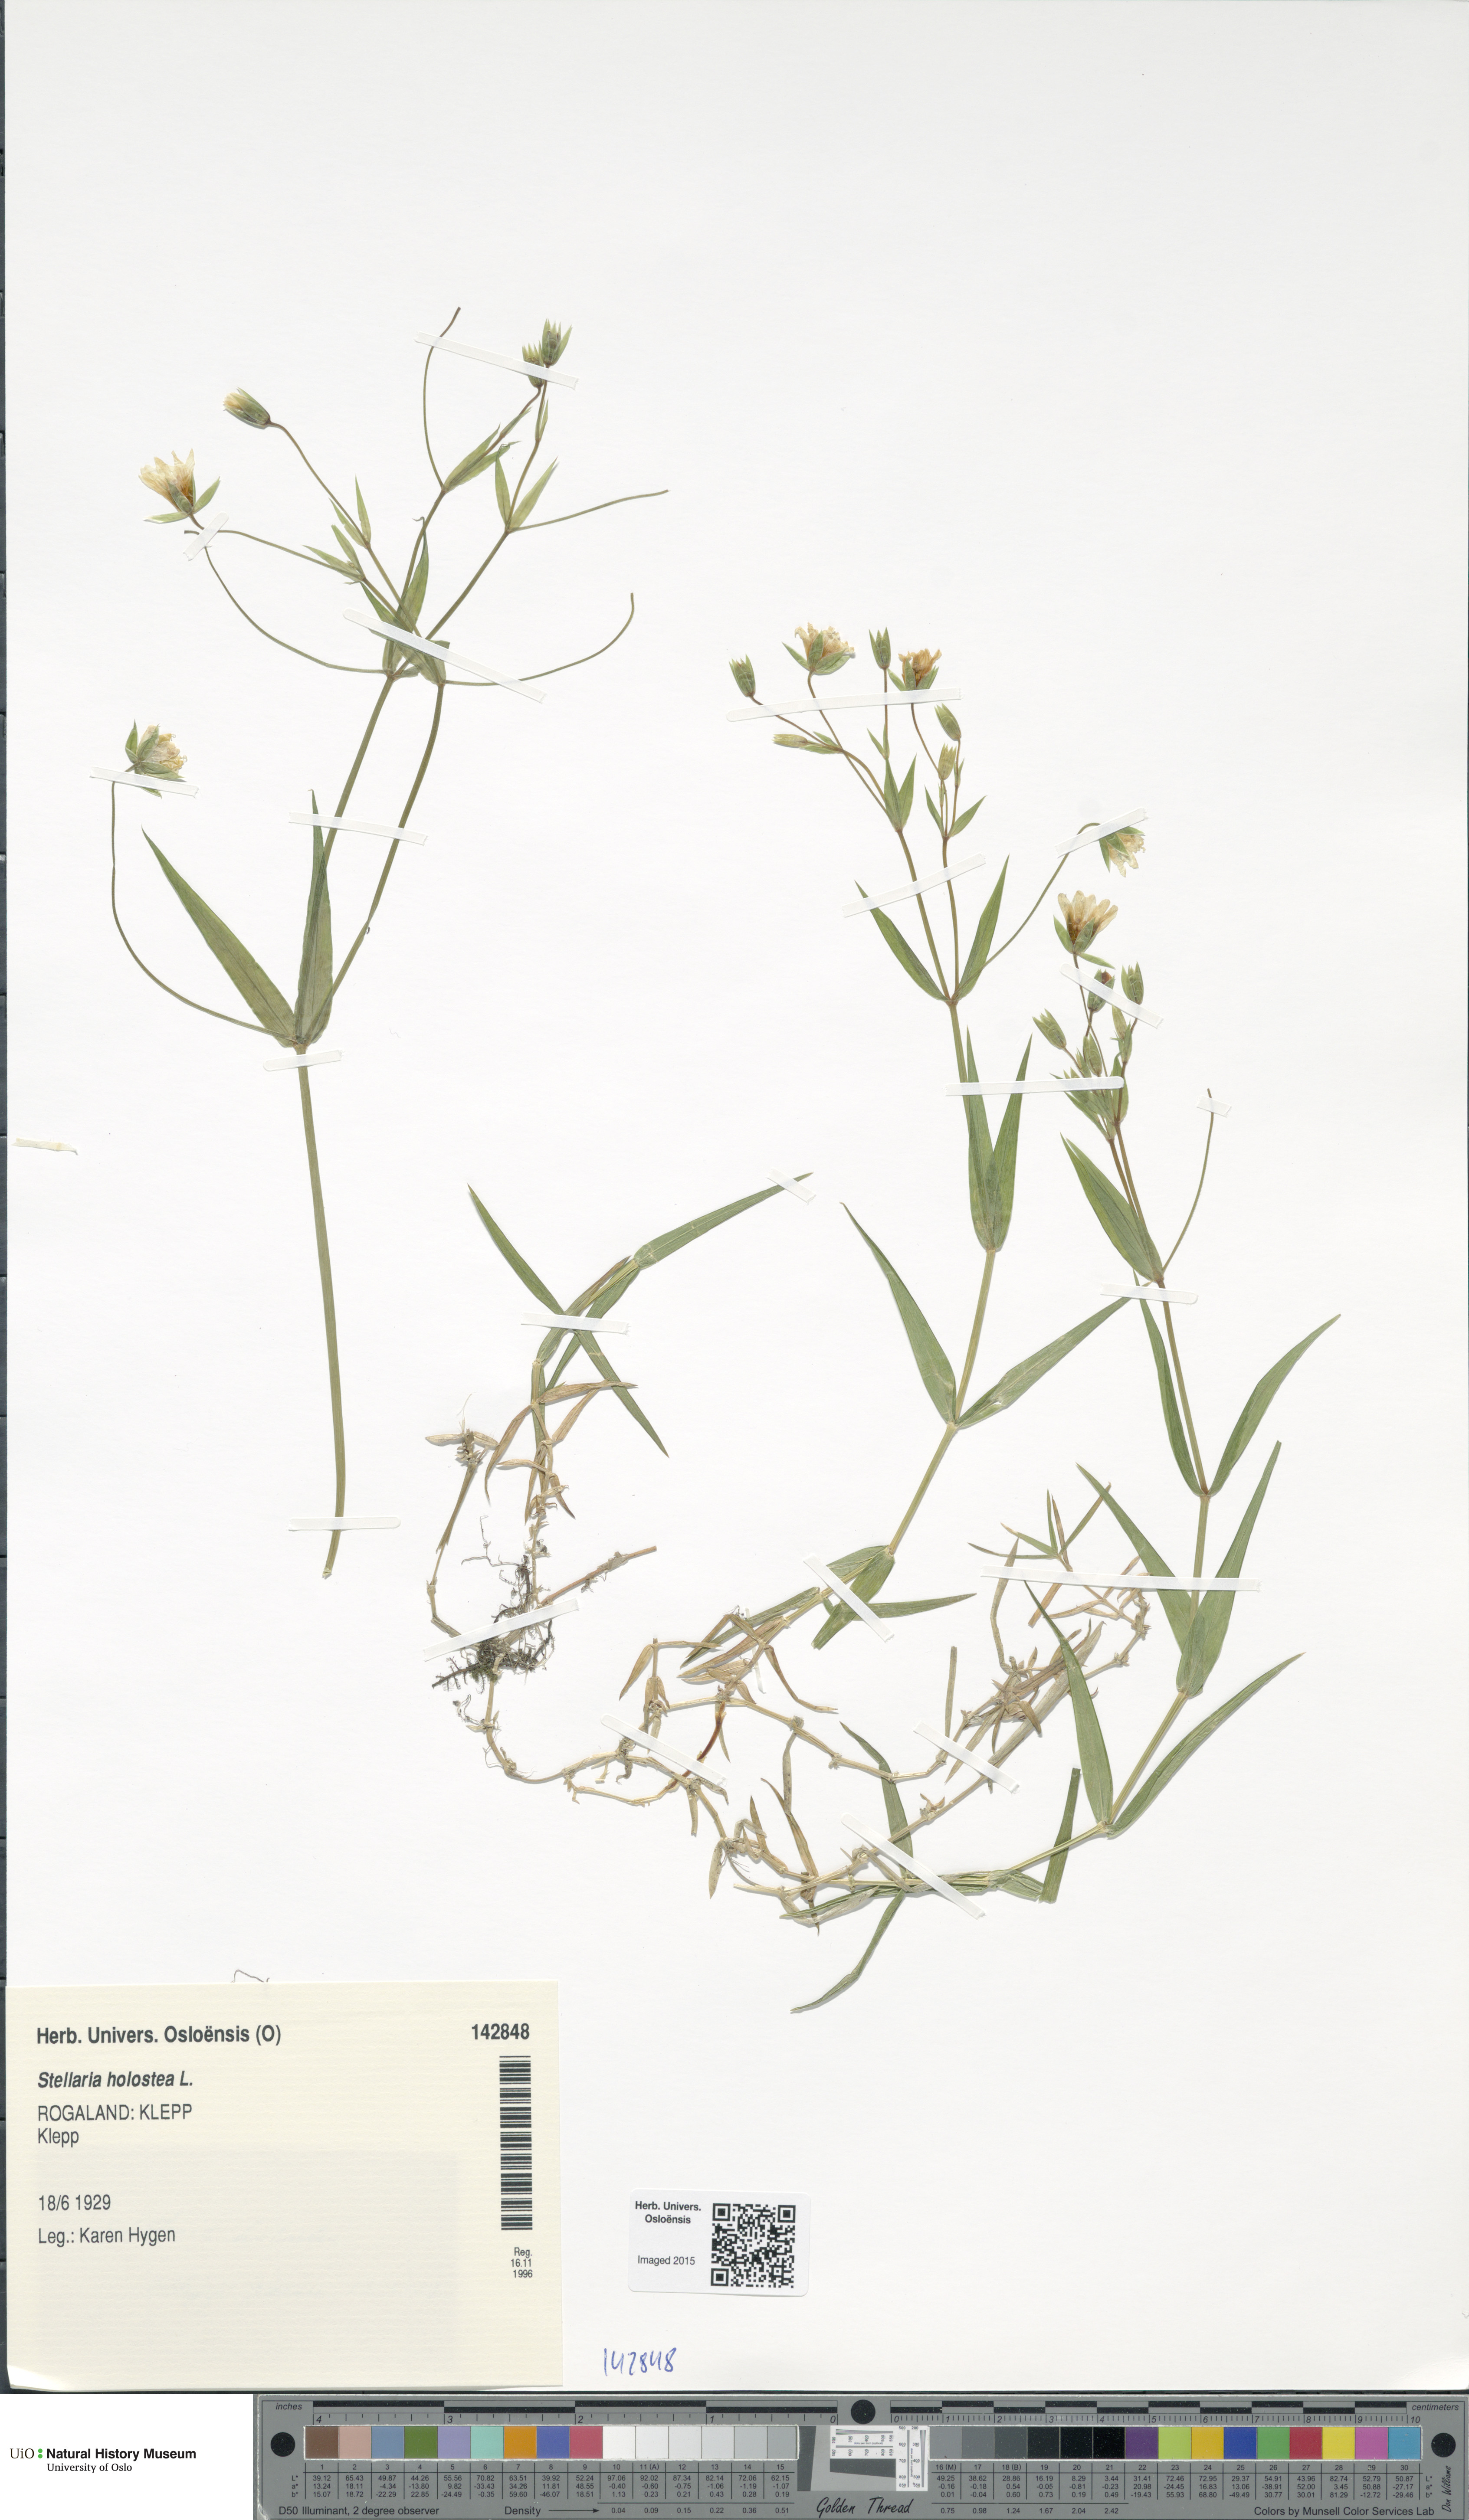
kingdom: Plantae
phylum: Tracheophyta
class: Magnoliopsida
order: Caryophyllales
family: Caryophyllaceae
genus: Rabelera
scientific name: Rabelera holostea
